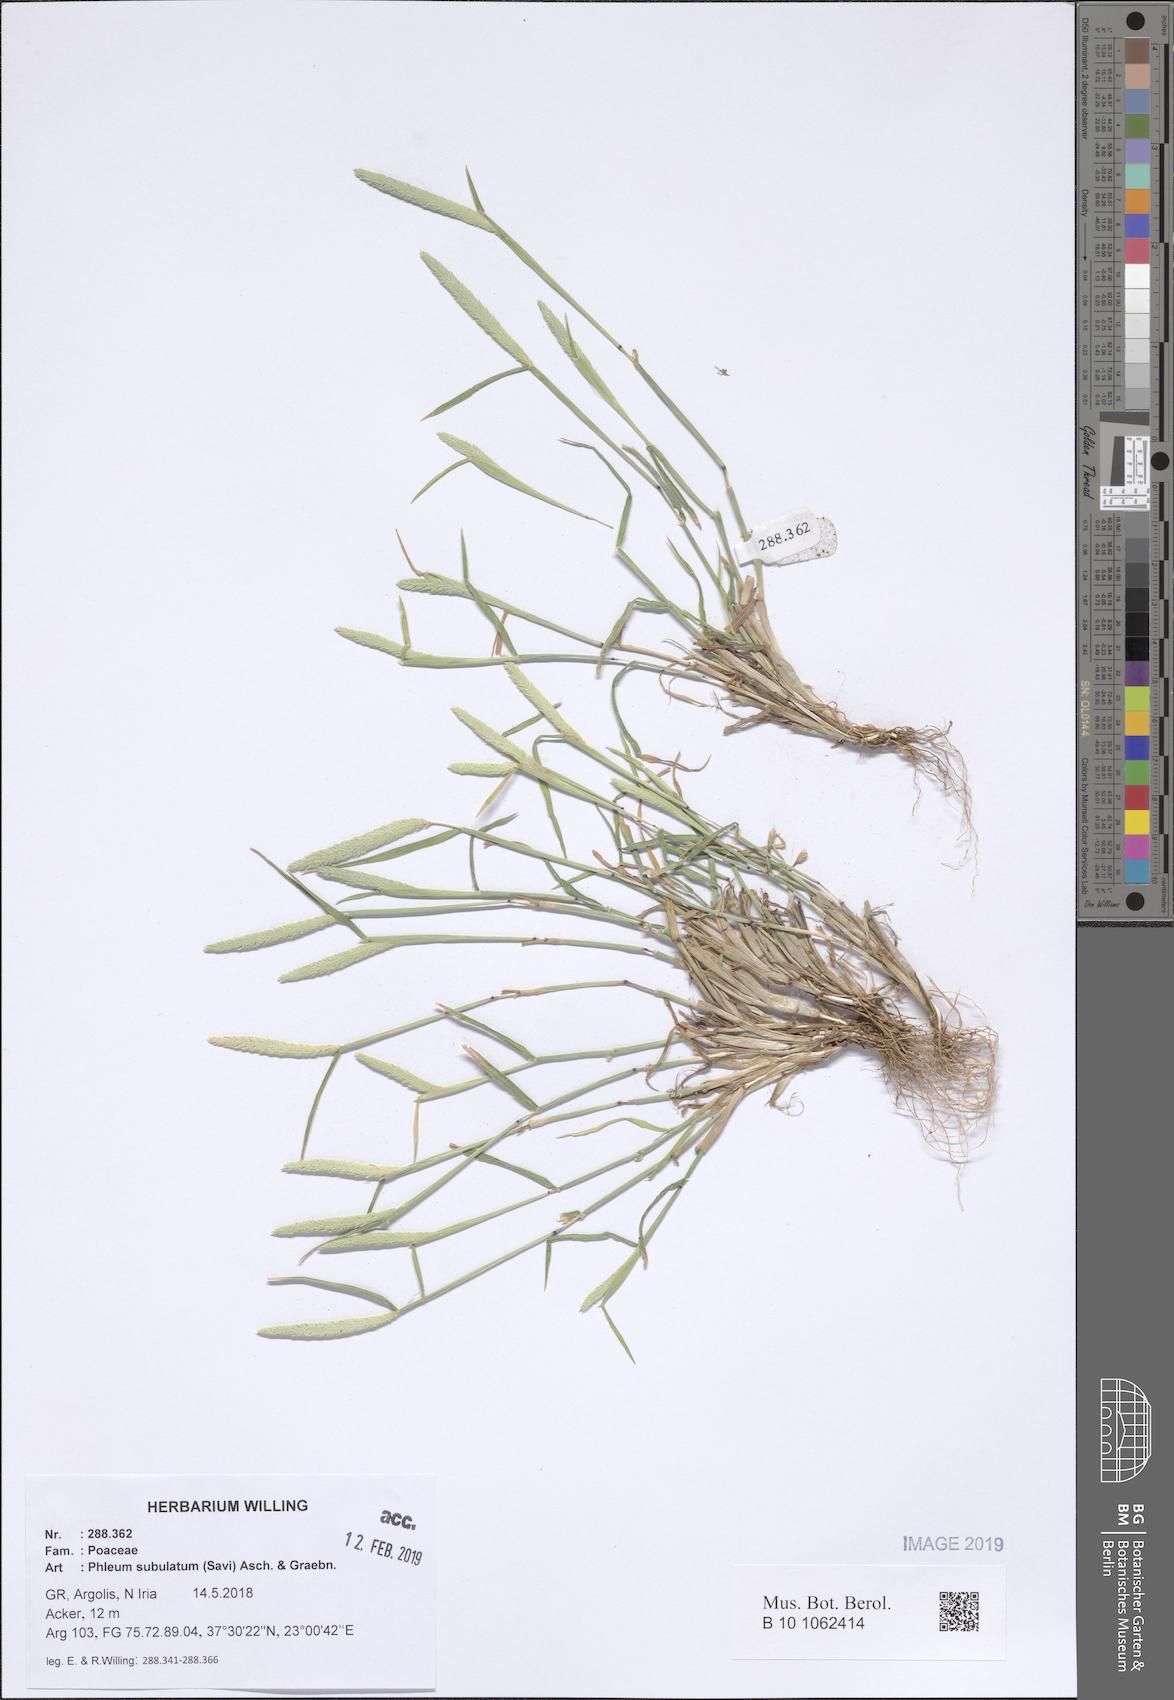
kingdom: Plantae
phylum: Tracheophyta
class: Liliopsida
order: Poales
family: Poaceae
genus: Phleum
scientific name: Phleum subulatum
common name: Italian timothy
